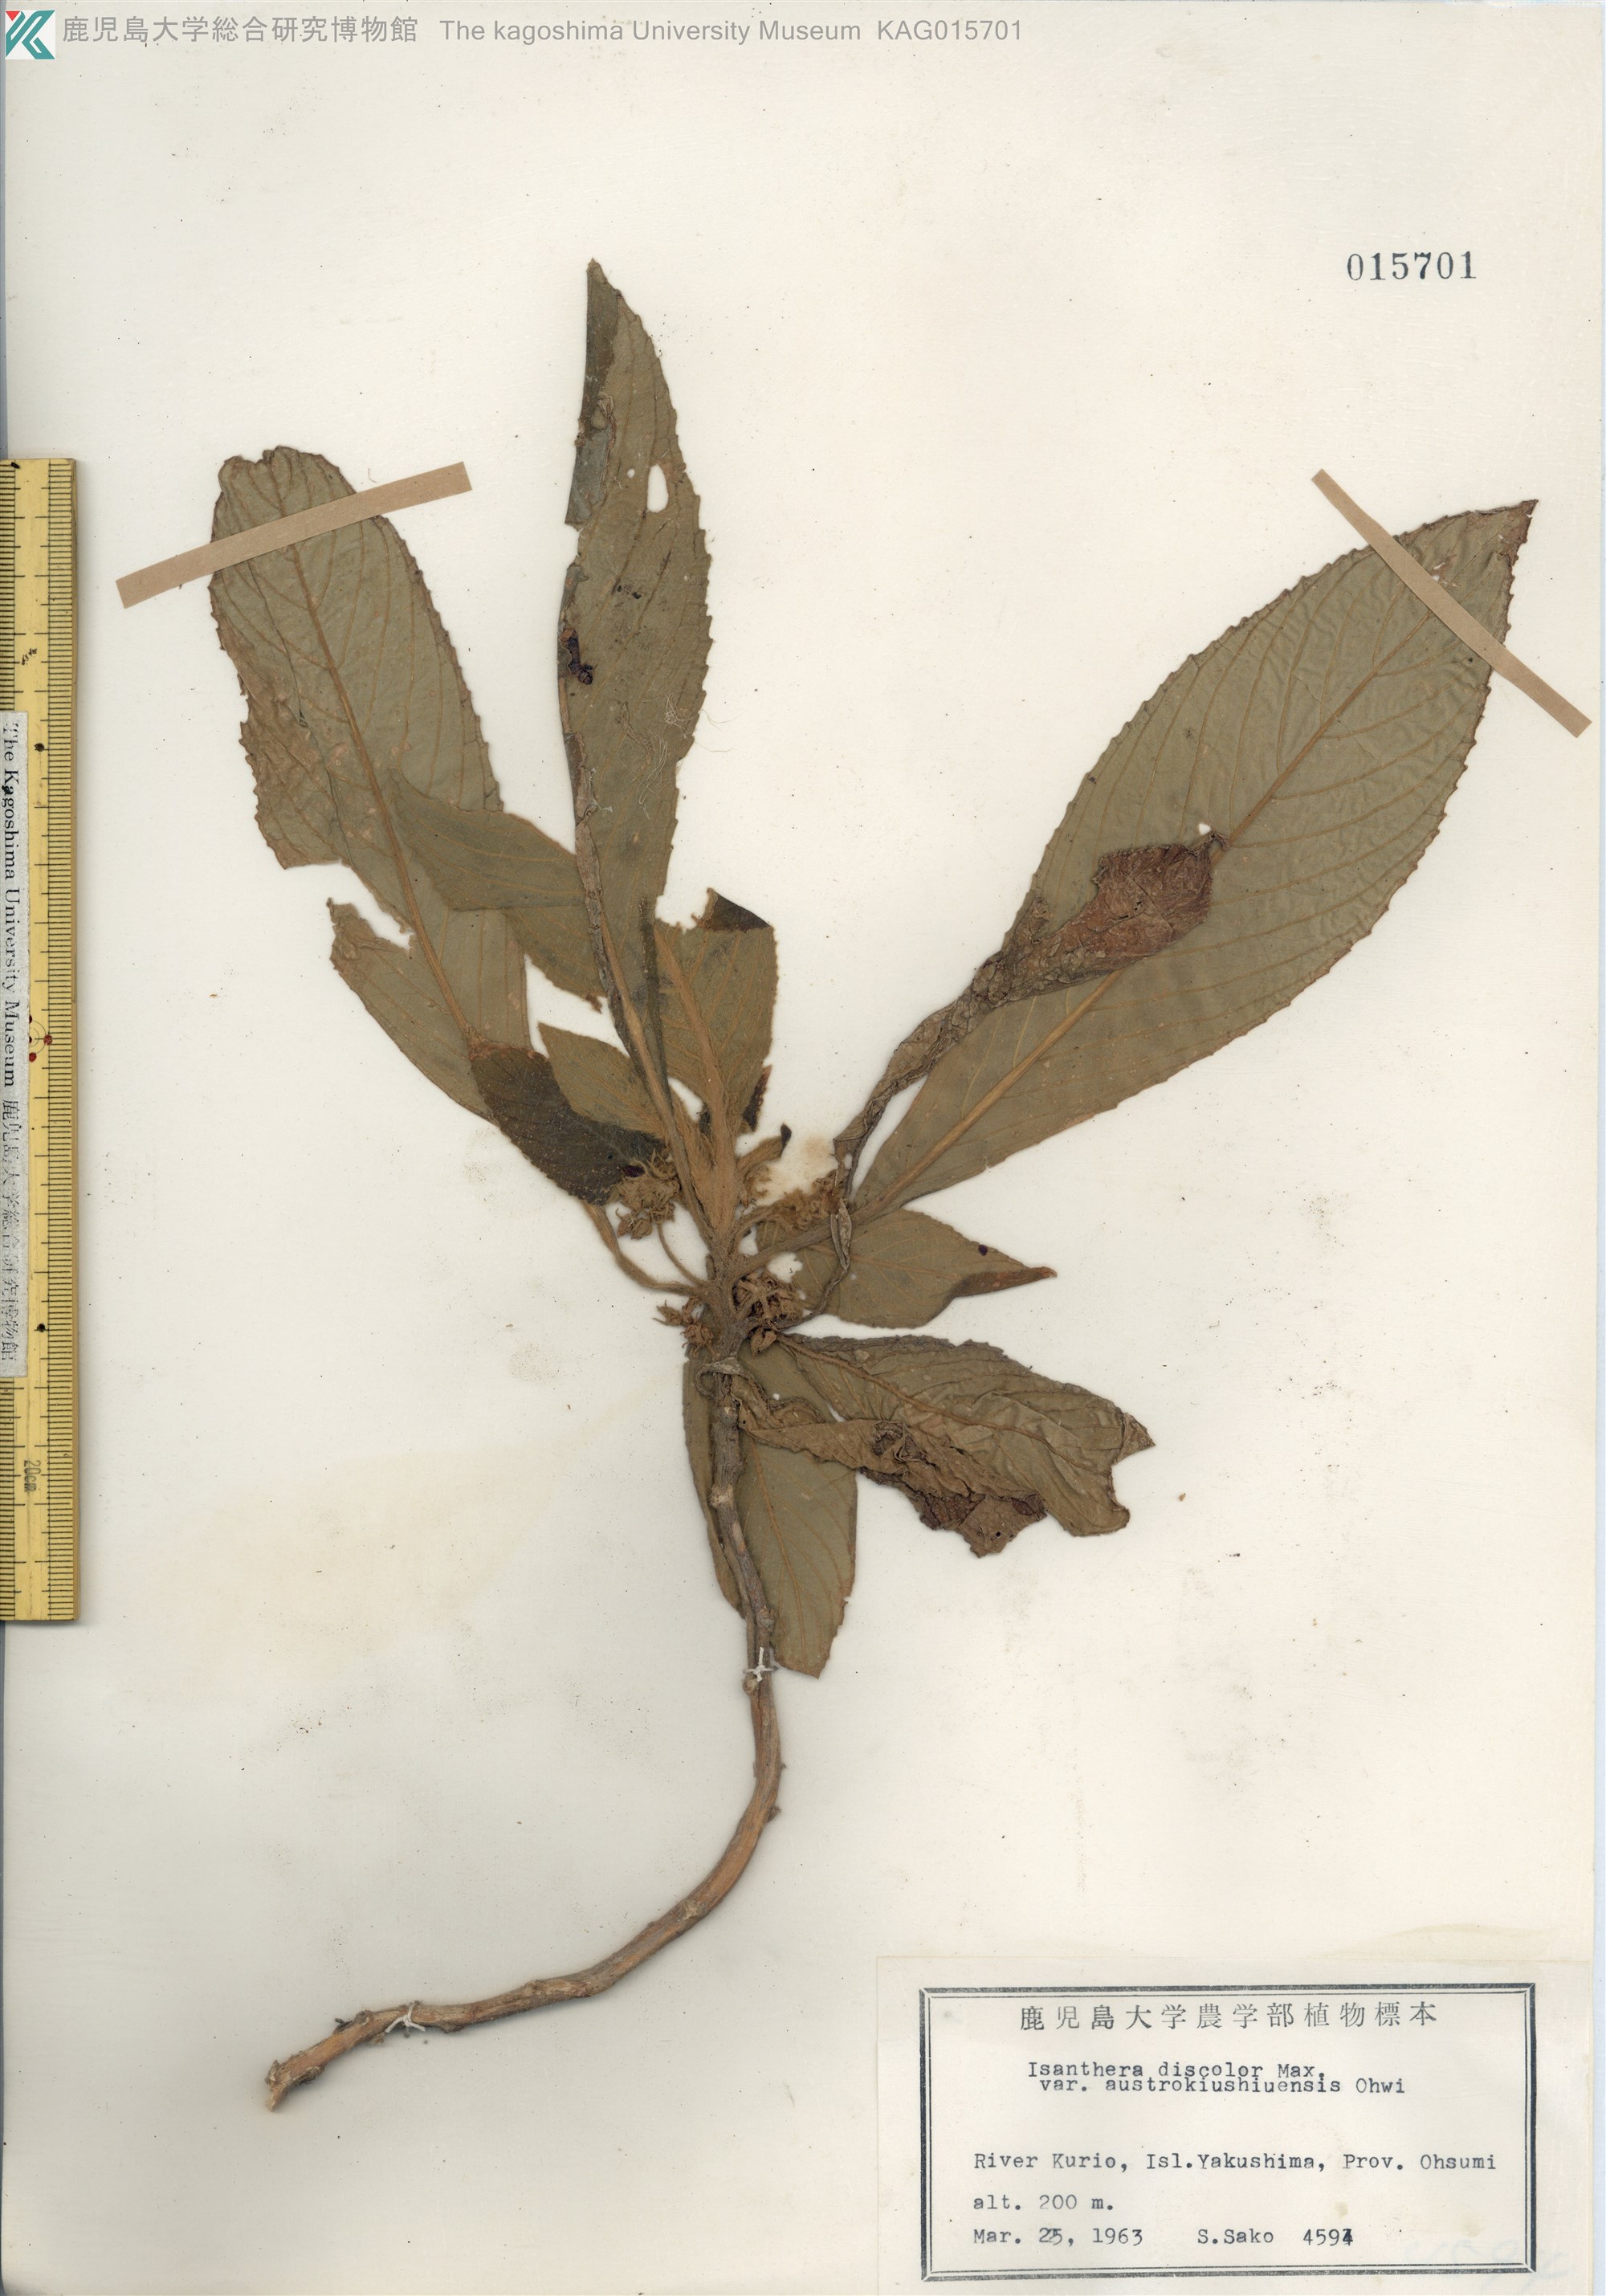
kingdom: Plantae
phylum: Tracheophyta
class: Magnoliopsida
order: Lamiales
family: Gesneriaceae
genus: Rhynchotechum
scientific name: Rhynchotechum discolor
